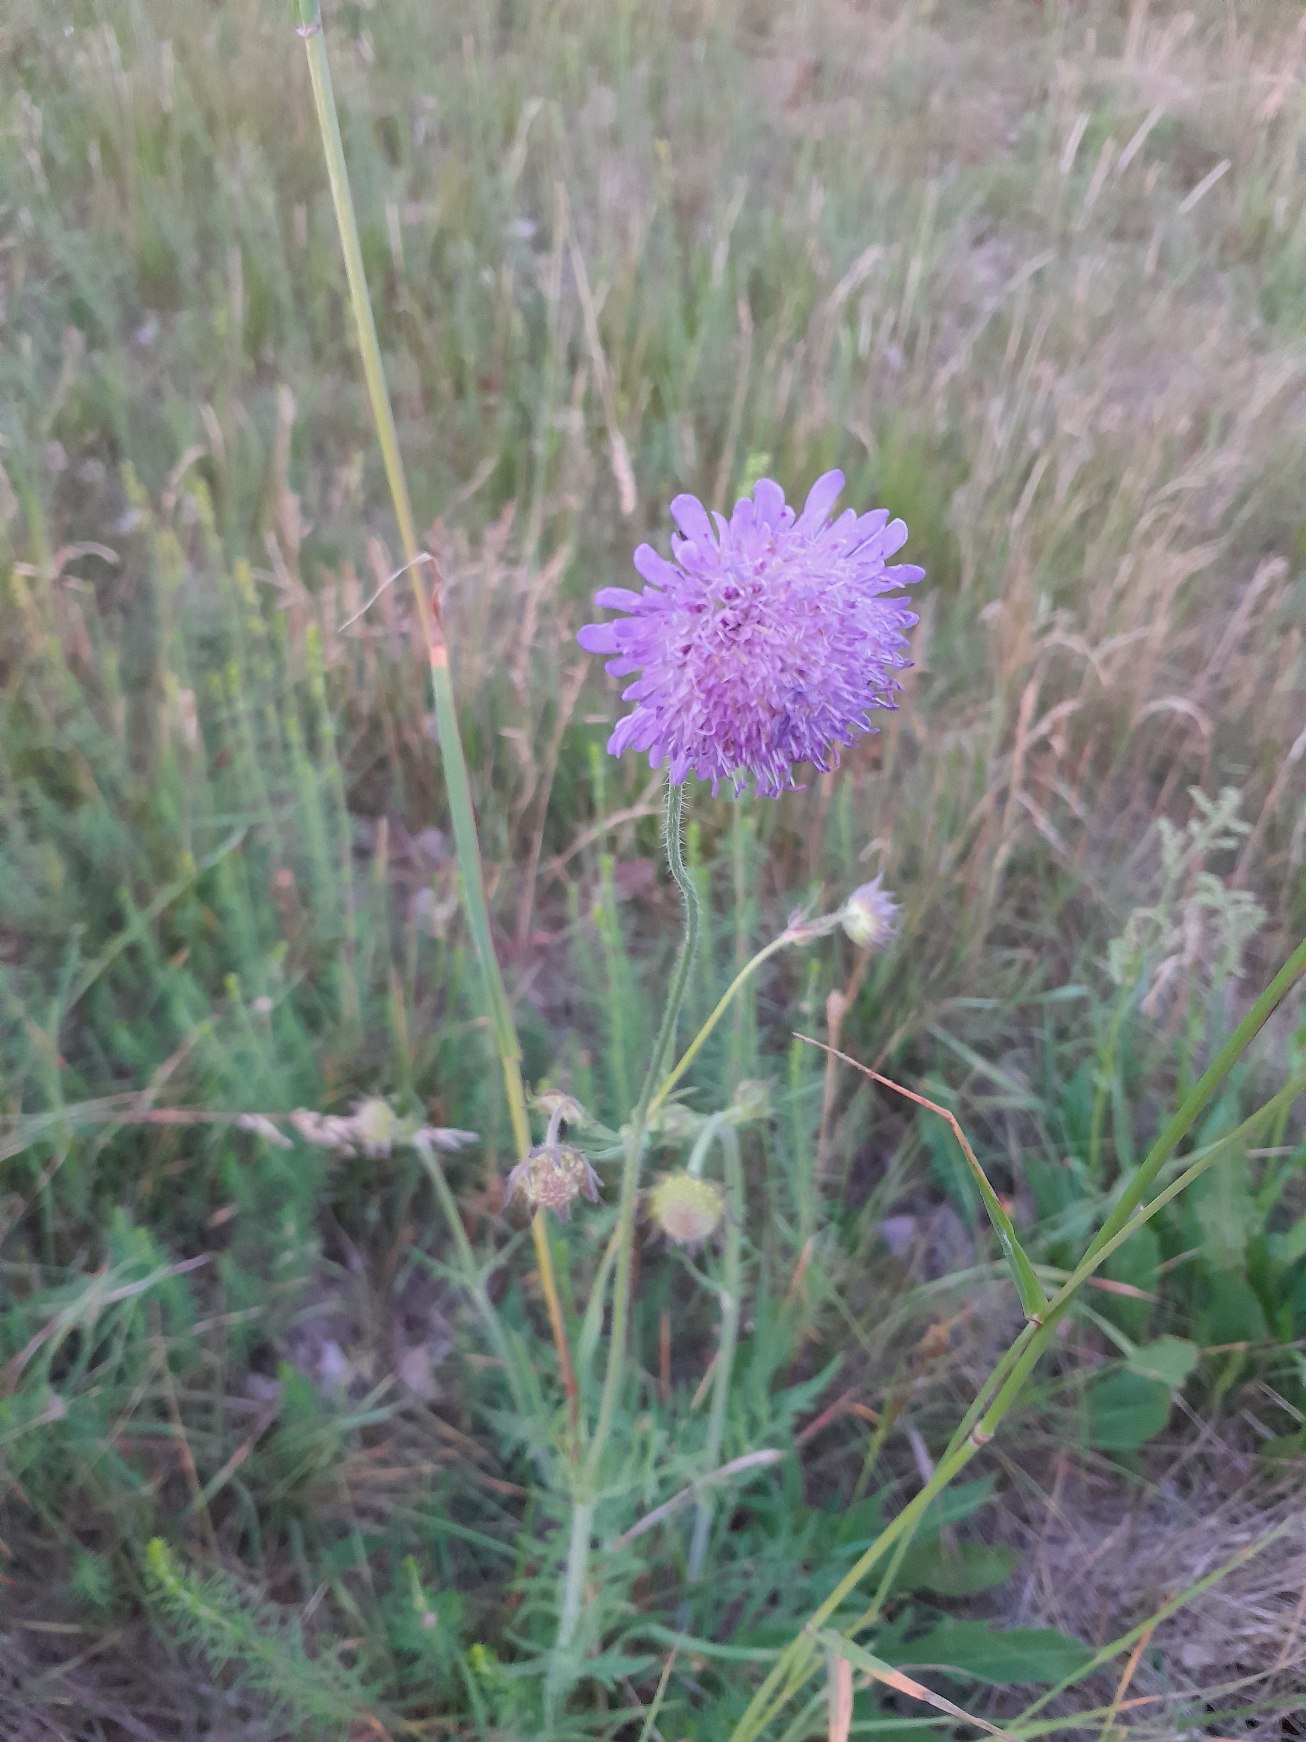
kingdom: Plantae
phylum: Tracheophyta
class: Magnoliopsida
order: Dipsacales
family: Caprifoliaceae
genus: Knautia
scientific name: Knautia arvensis
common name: Blåhat
